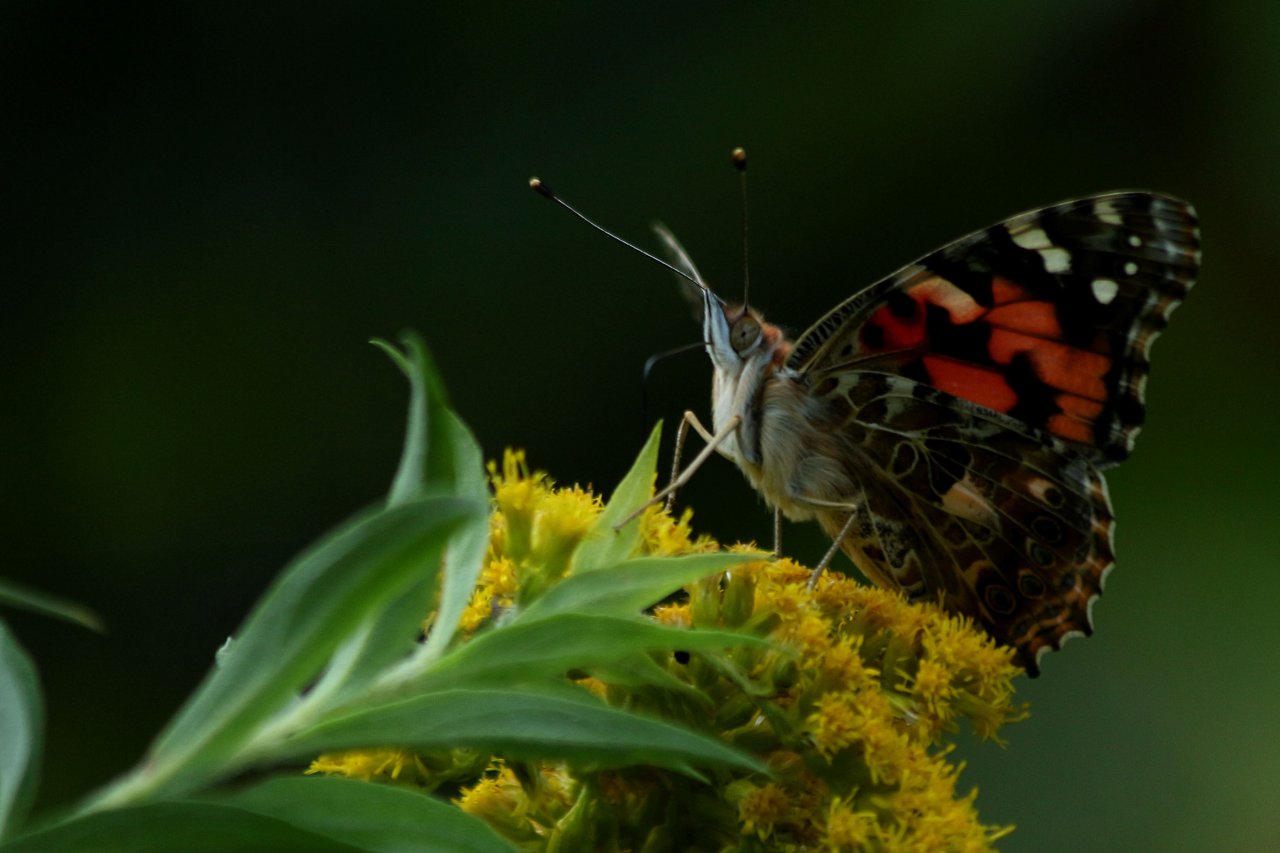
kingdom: Animalia
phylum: Arthropoda
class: Insecta
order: Lepidoptera
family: Nymphalidae
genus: Vanessa
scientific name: Vanessa cardui
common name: Painted Lady
